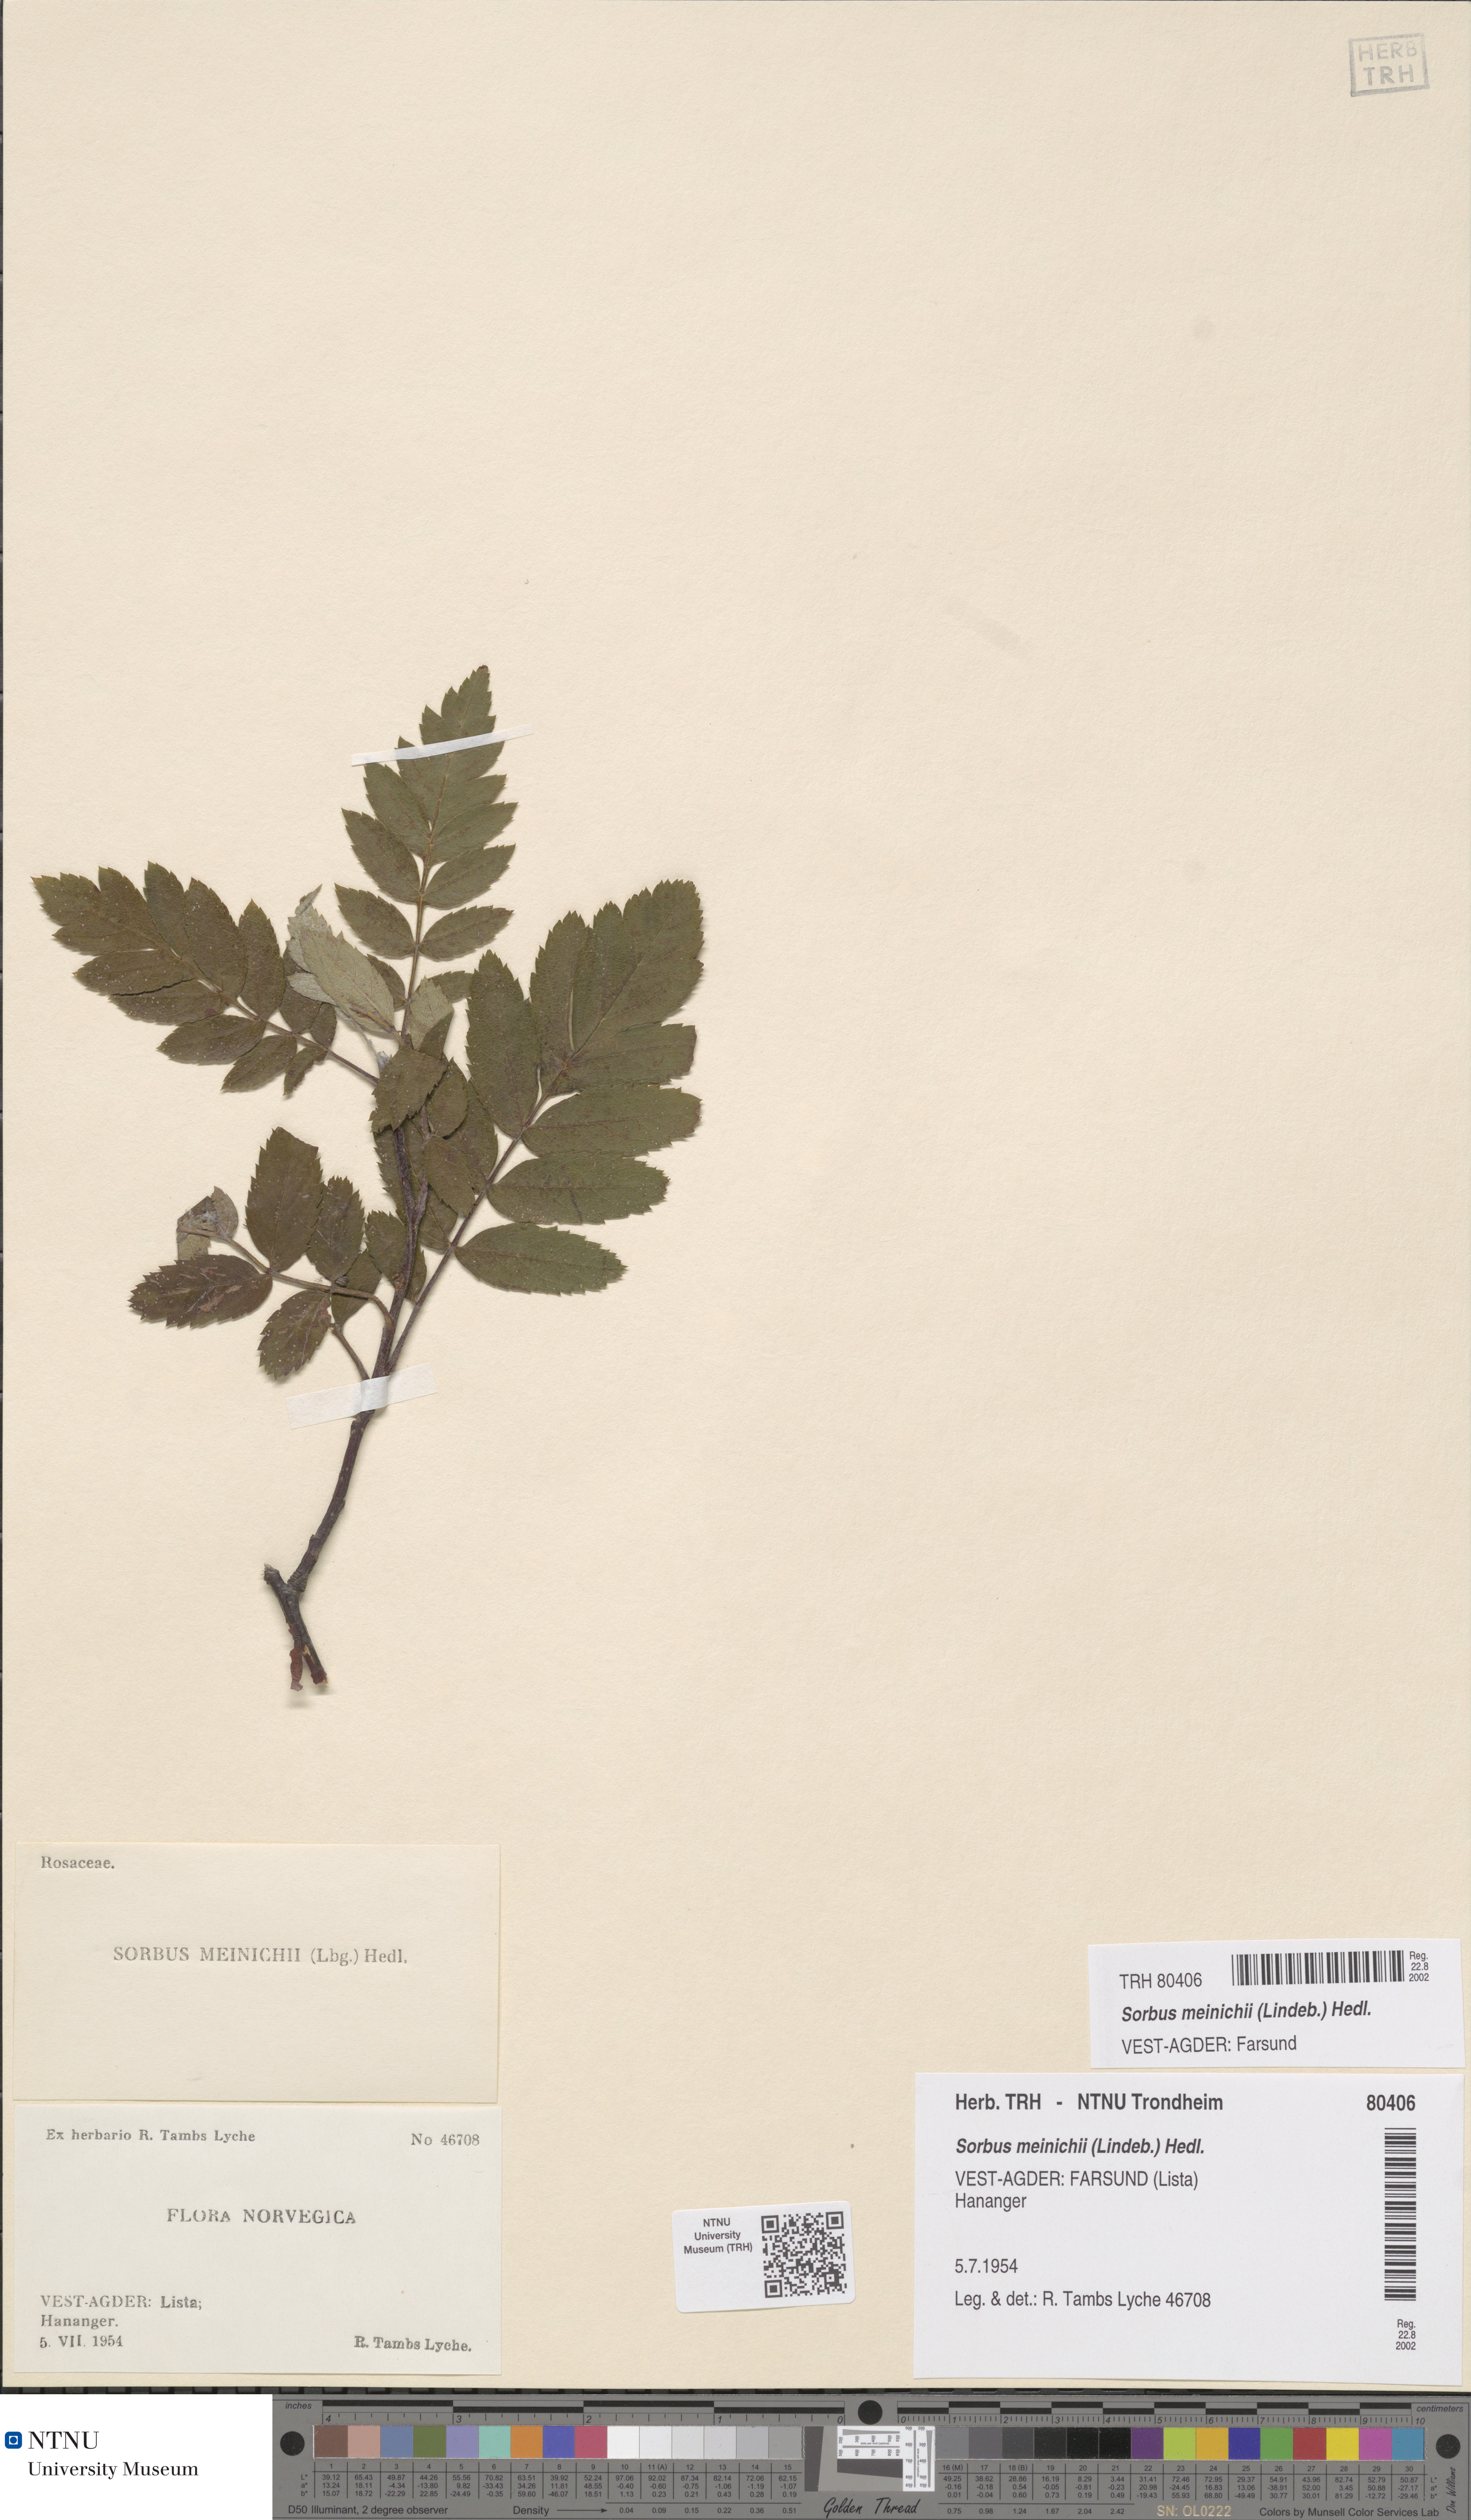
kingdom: Plantae
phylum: Tracheophyta
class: Magnoliopsida
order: Rosales
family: Rosaceae
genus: Hedlundia
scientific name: Hedlundia meinichii
